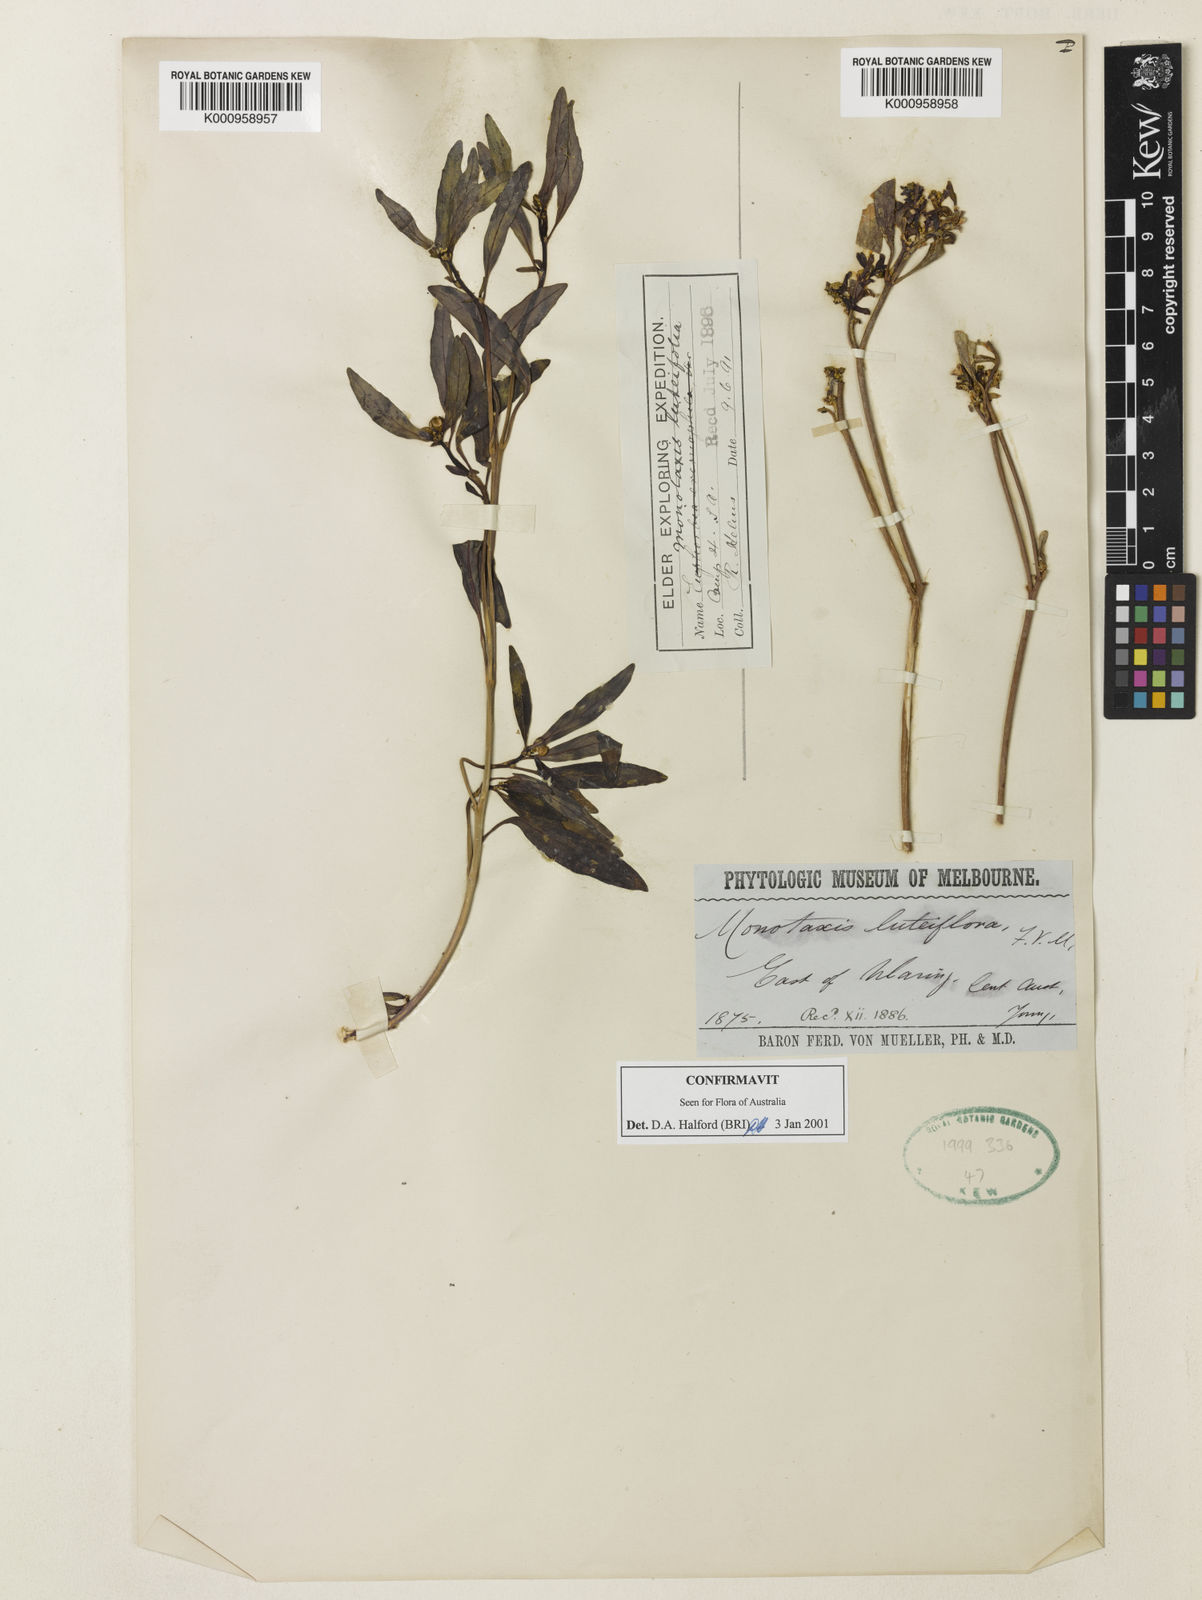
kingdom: Plantae
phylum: Tracheophyta
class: Magnoliopsida
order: Malpighiales
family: Euphorbiaceae
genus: Monotaxis
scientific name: Monotaxis luteiflora
